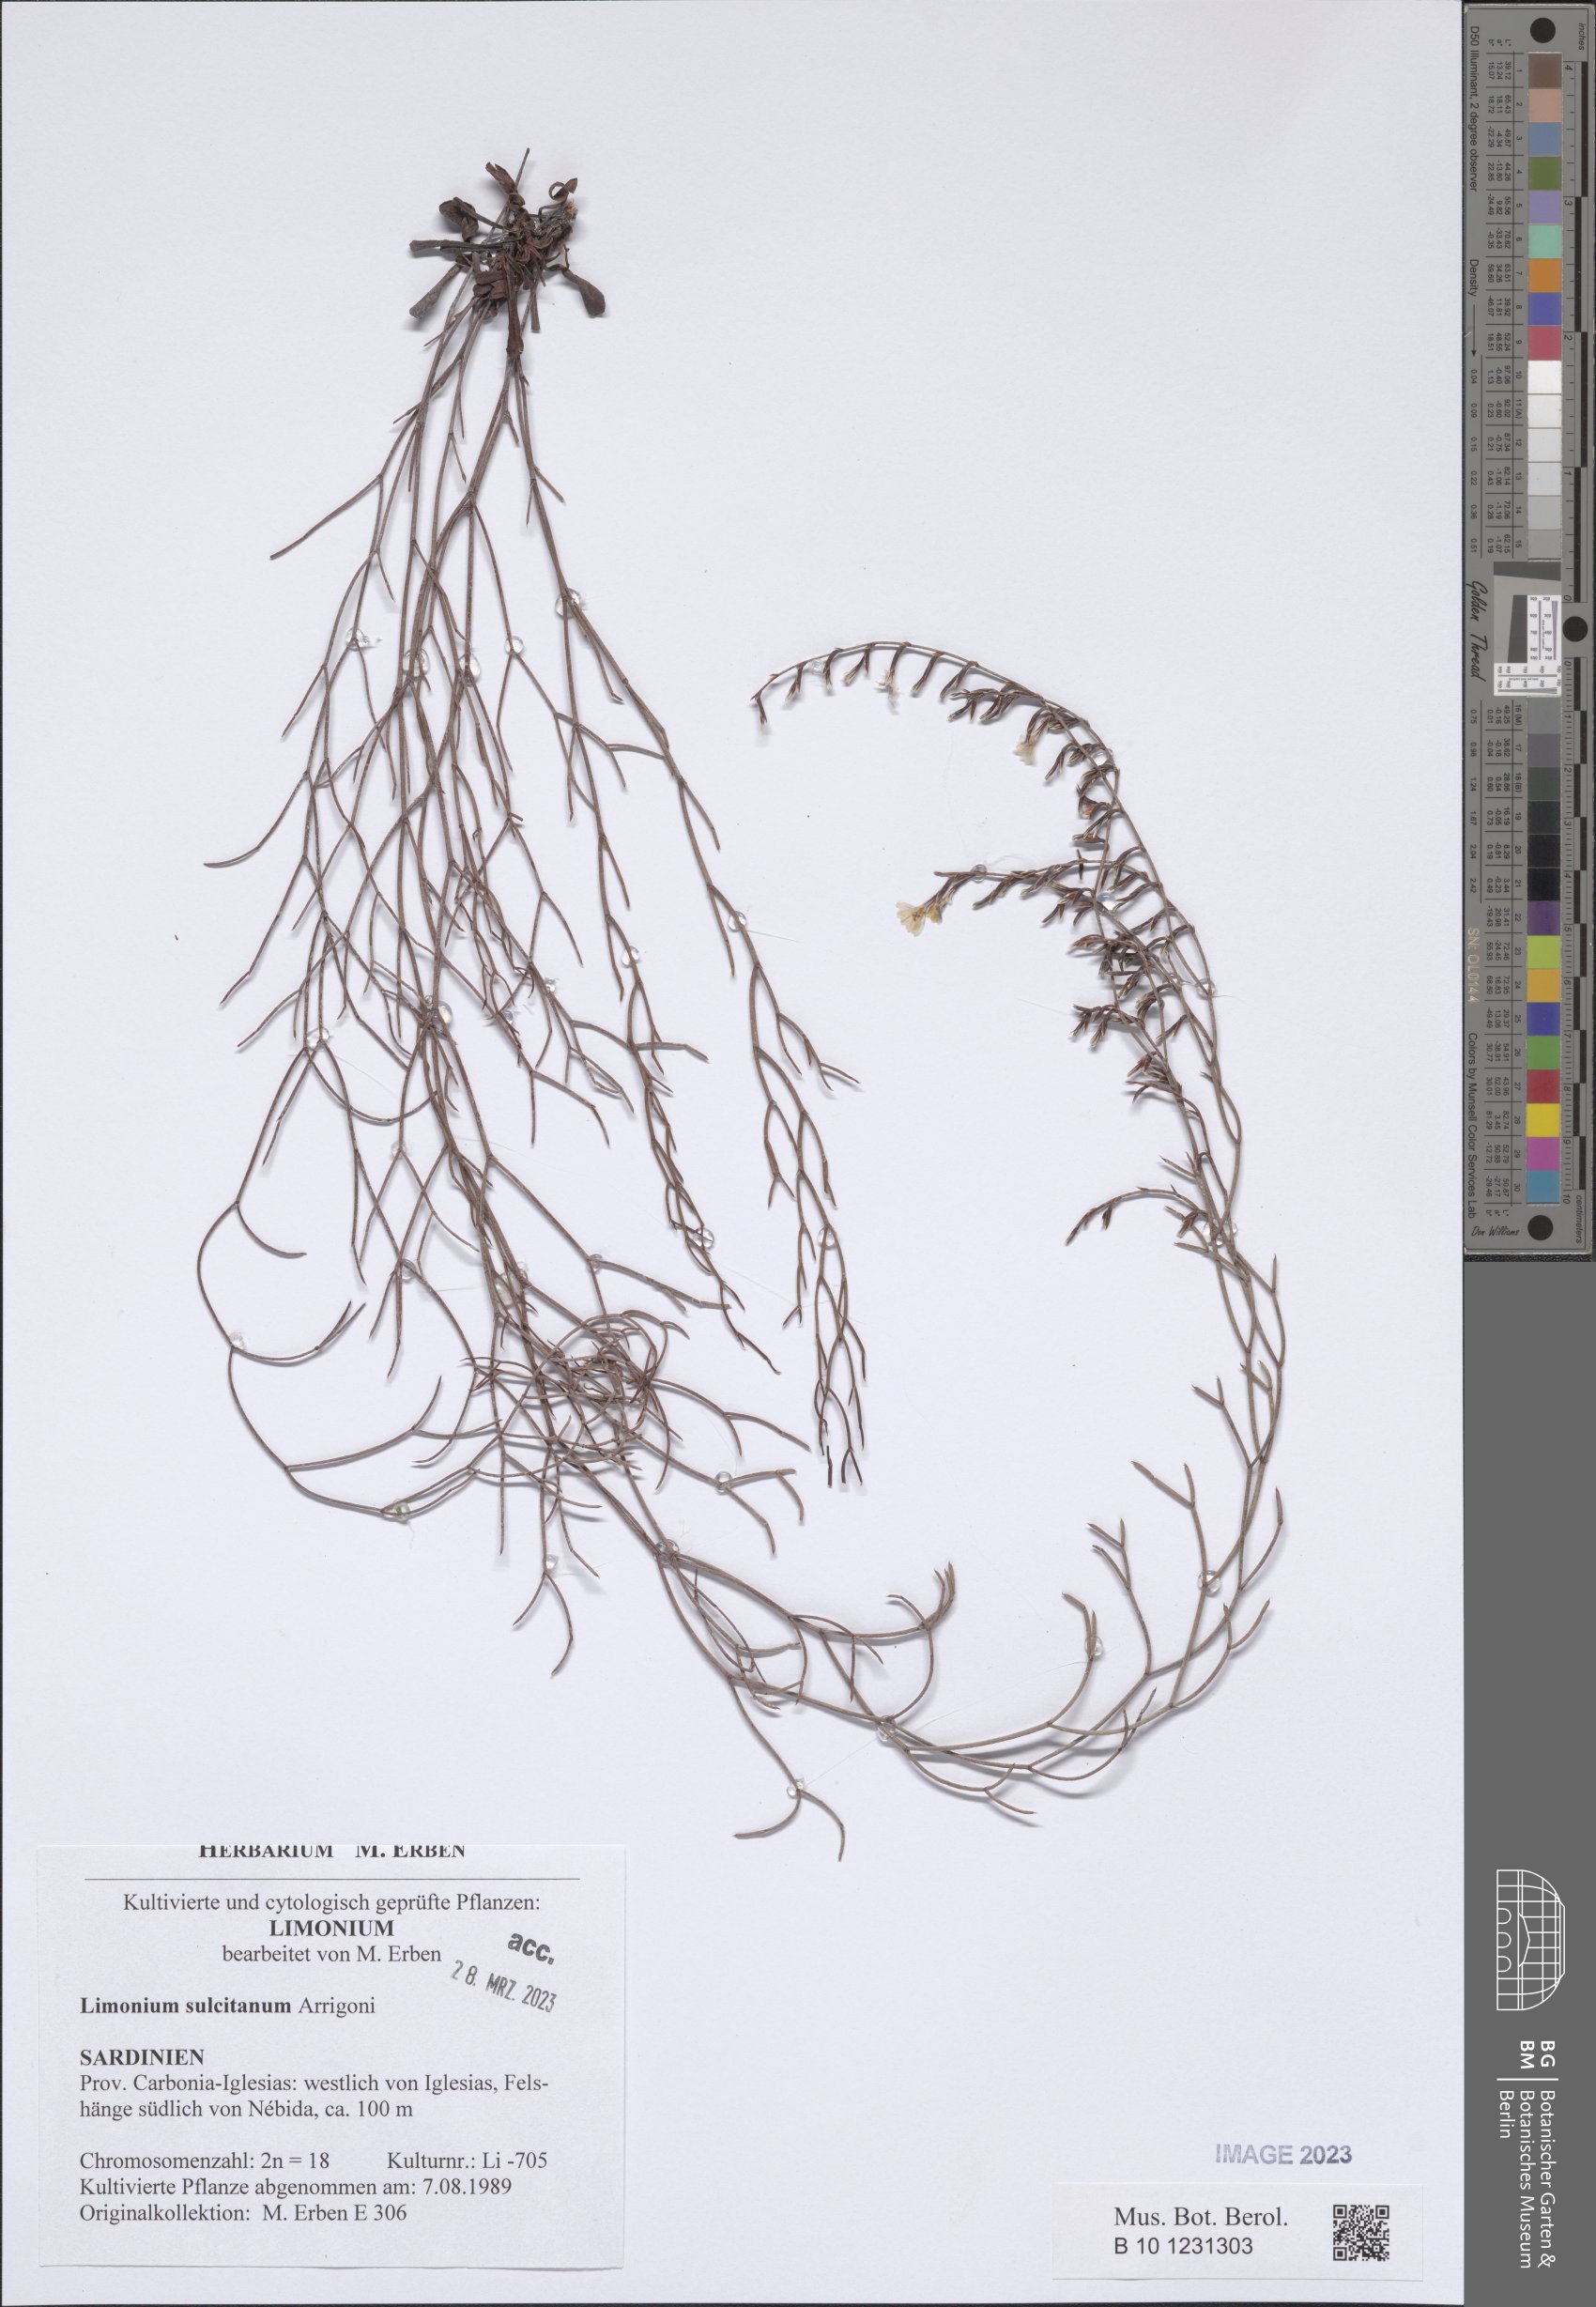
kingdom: Plantae
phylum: Tracheophyta
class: Magnoliopsida
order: Caryophyllales
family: Plumbaginaceae
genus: Limonium
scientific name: Limonium sulcitanum
